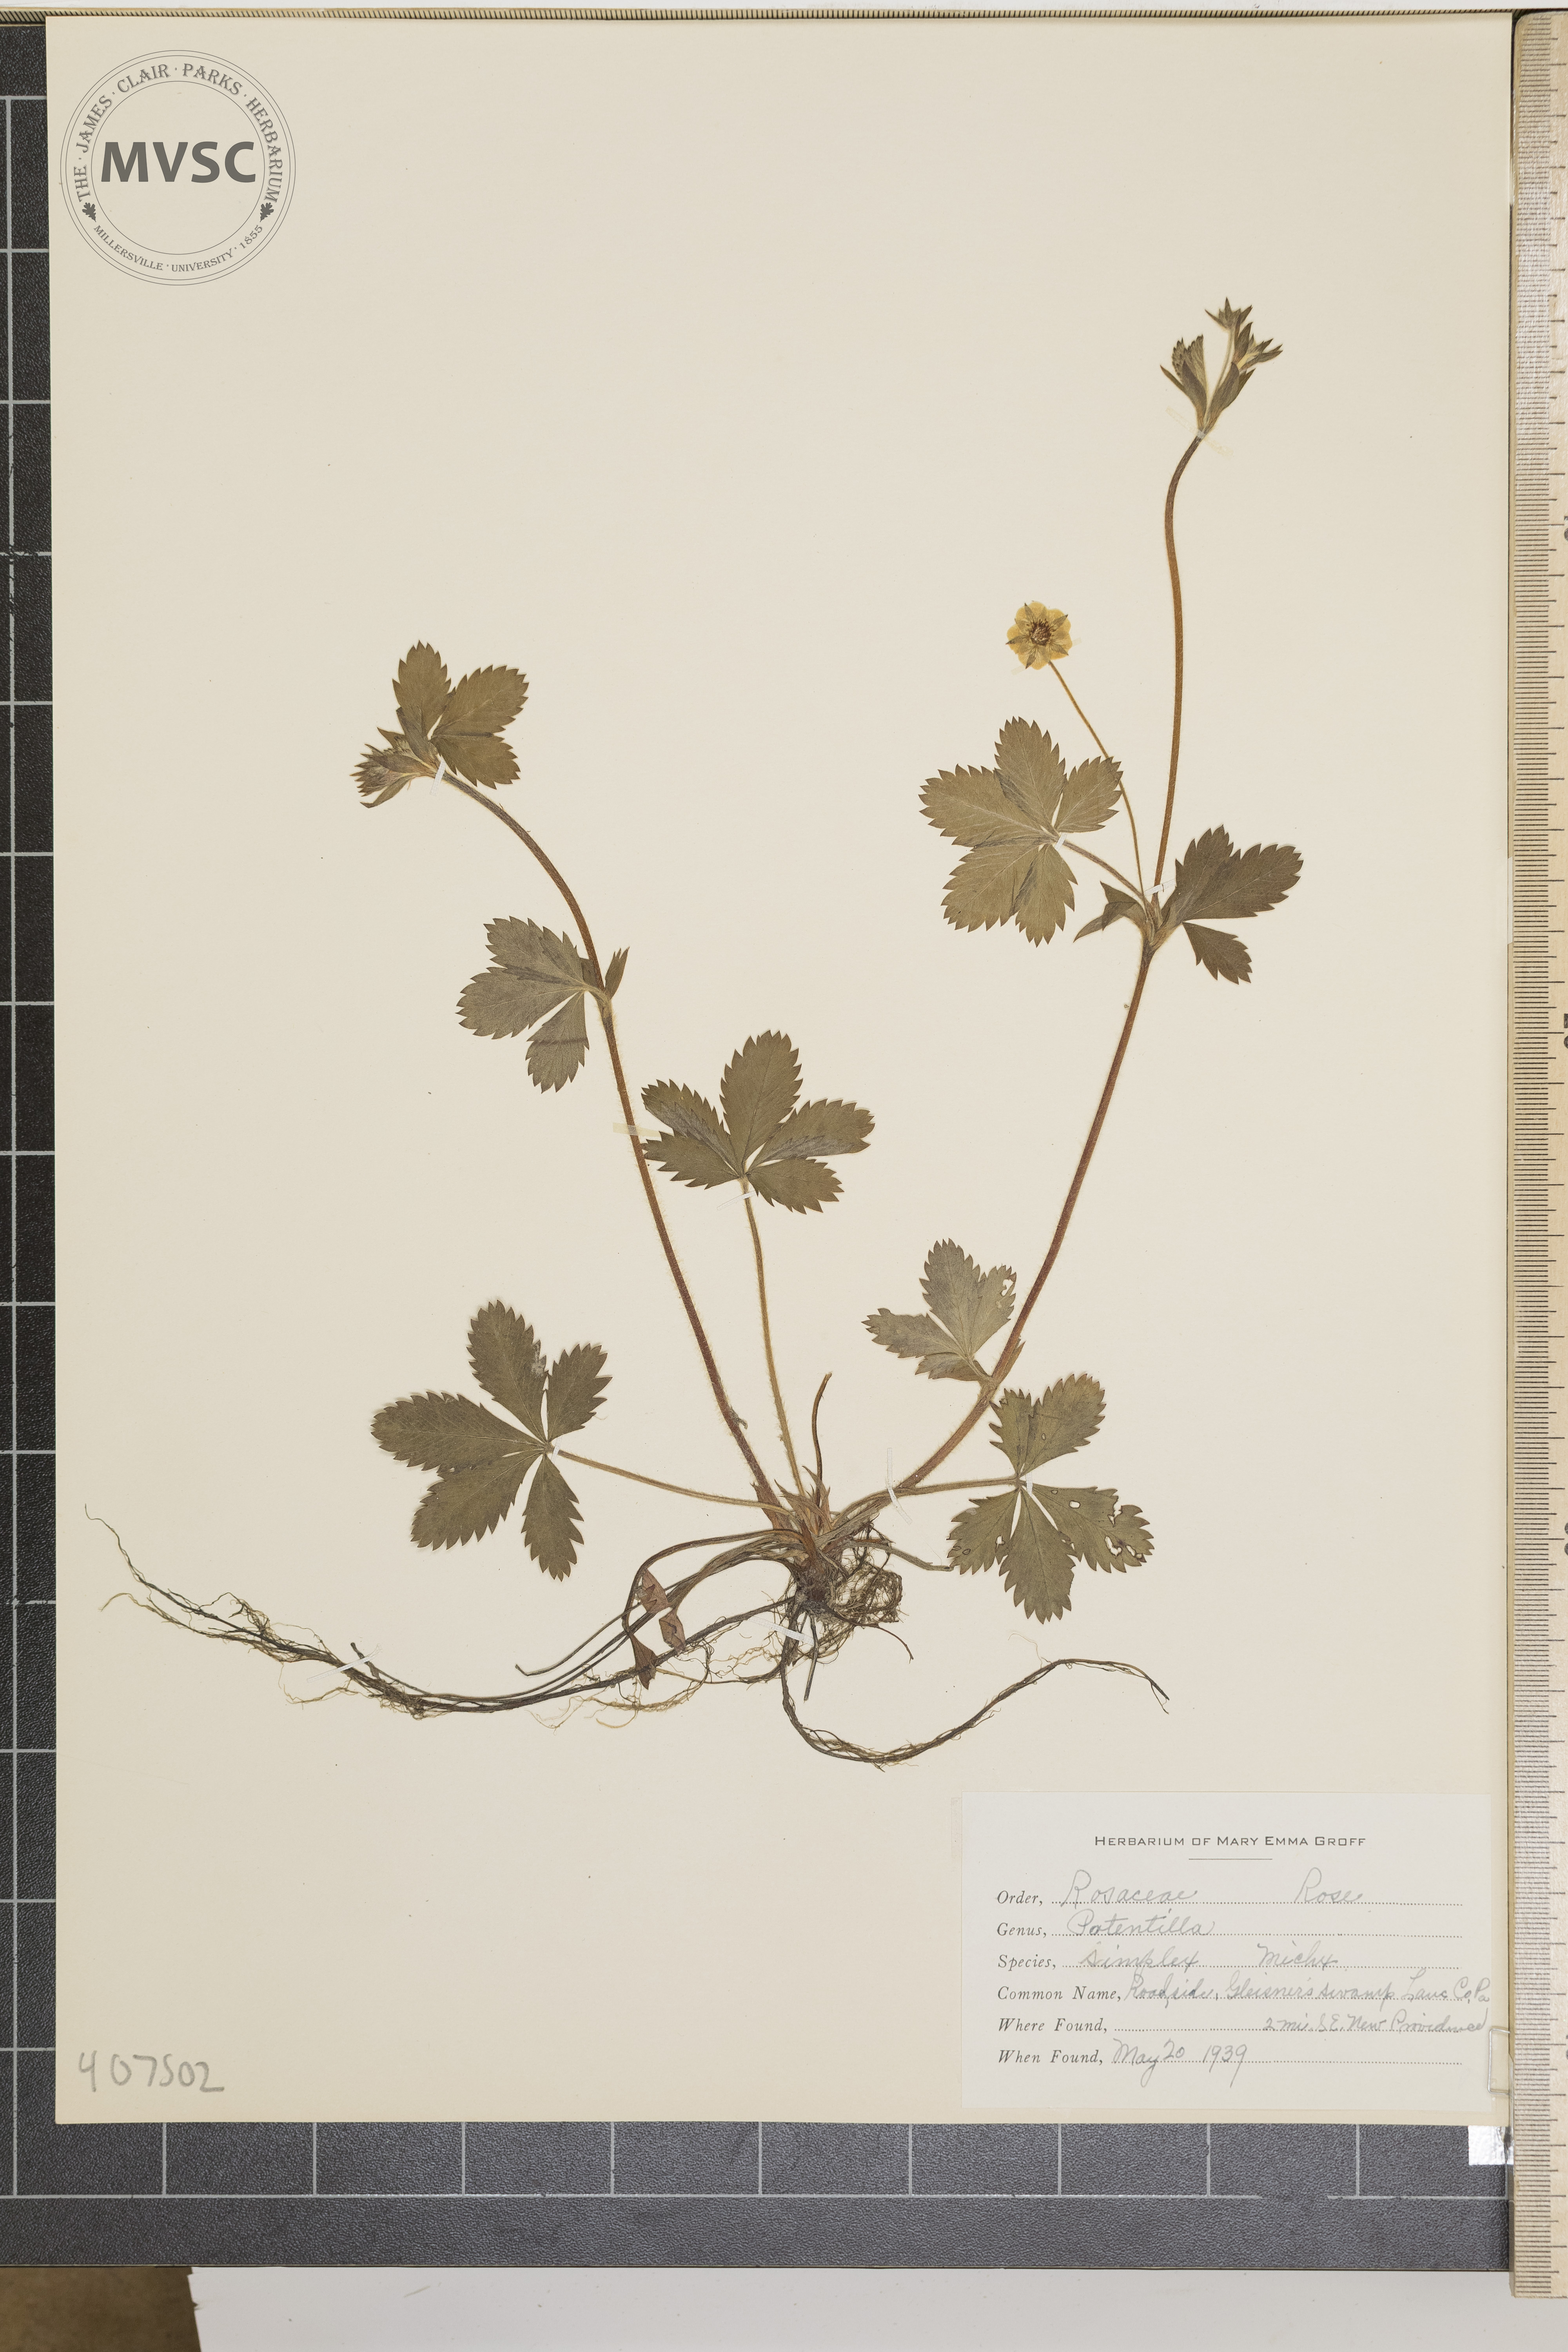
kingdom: Plantae
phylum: Tracheophyta
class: Magnoliopsida
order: Rosales
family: Rosaceae
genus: Potentilla
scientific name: Potentilla simplex
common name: Old field cinquefoil
